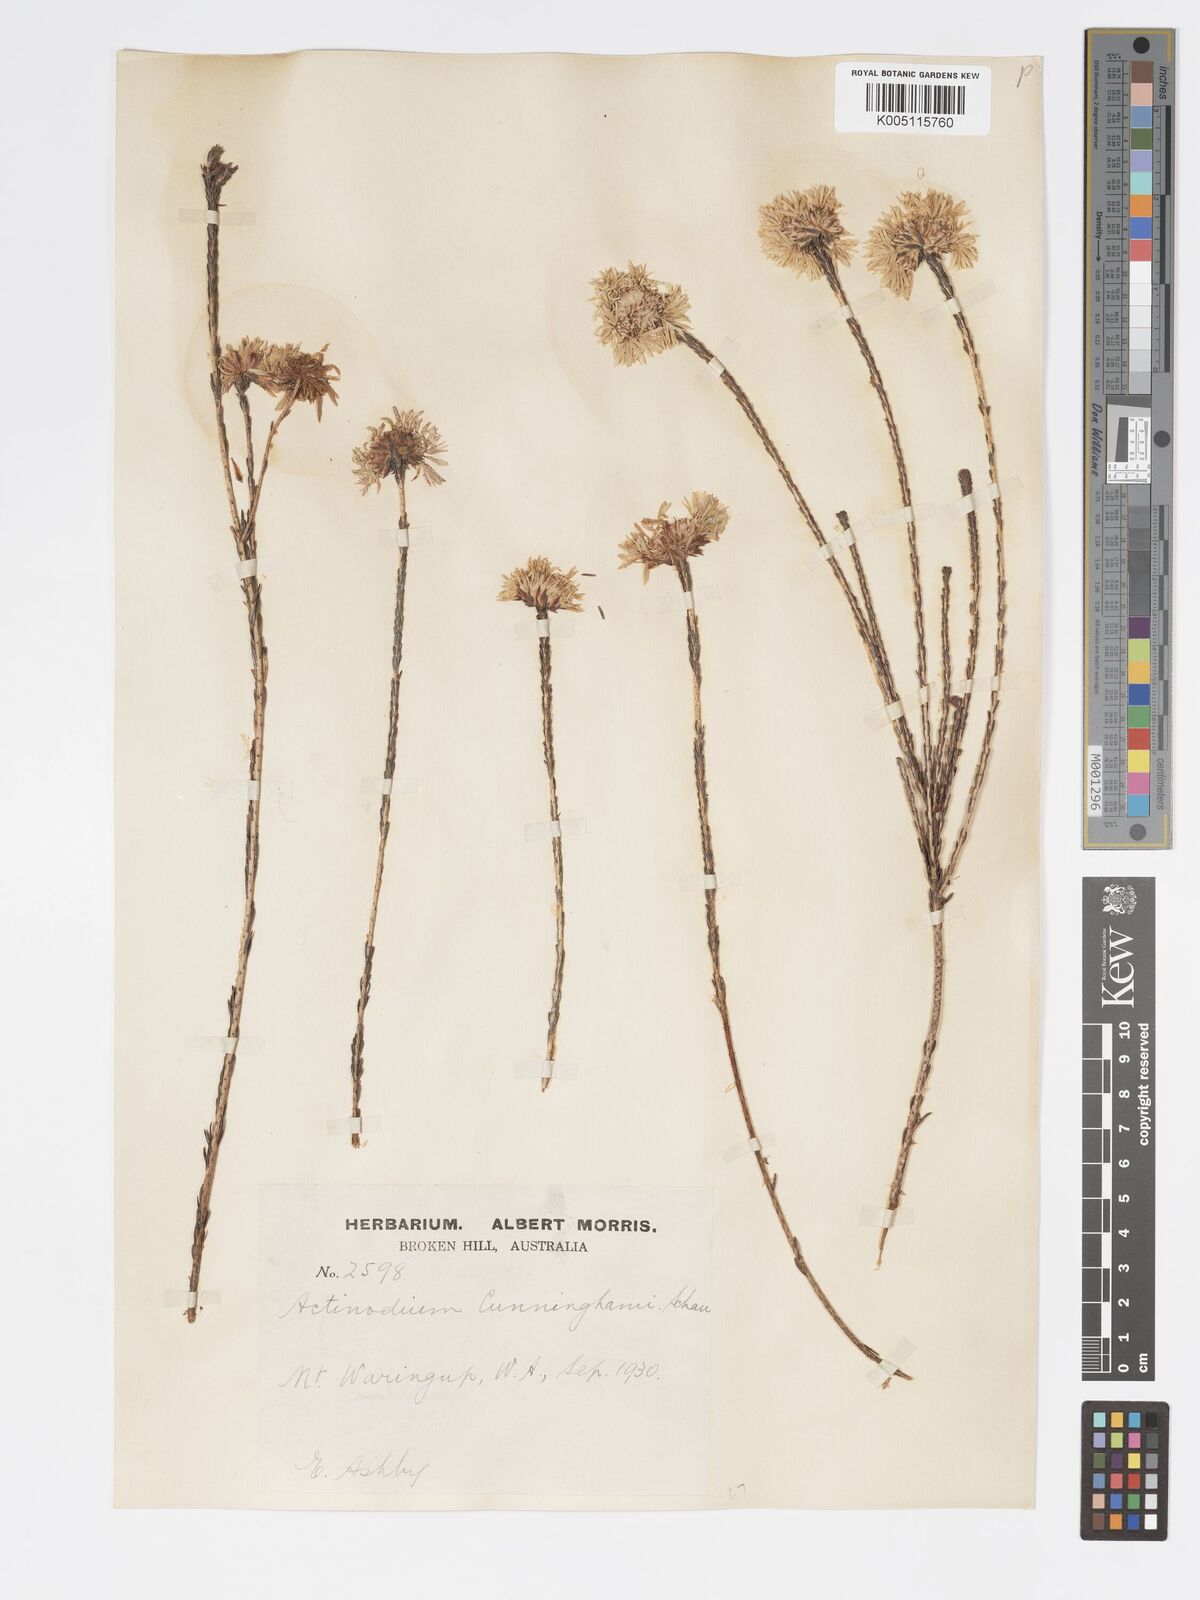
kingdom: Plantae
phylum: Tracheophyta
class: Magnoliopsida
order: Myrtales
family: Myrtaceae
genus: Actinodium
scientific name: Actinodium cunninghamii
